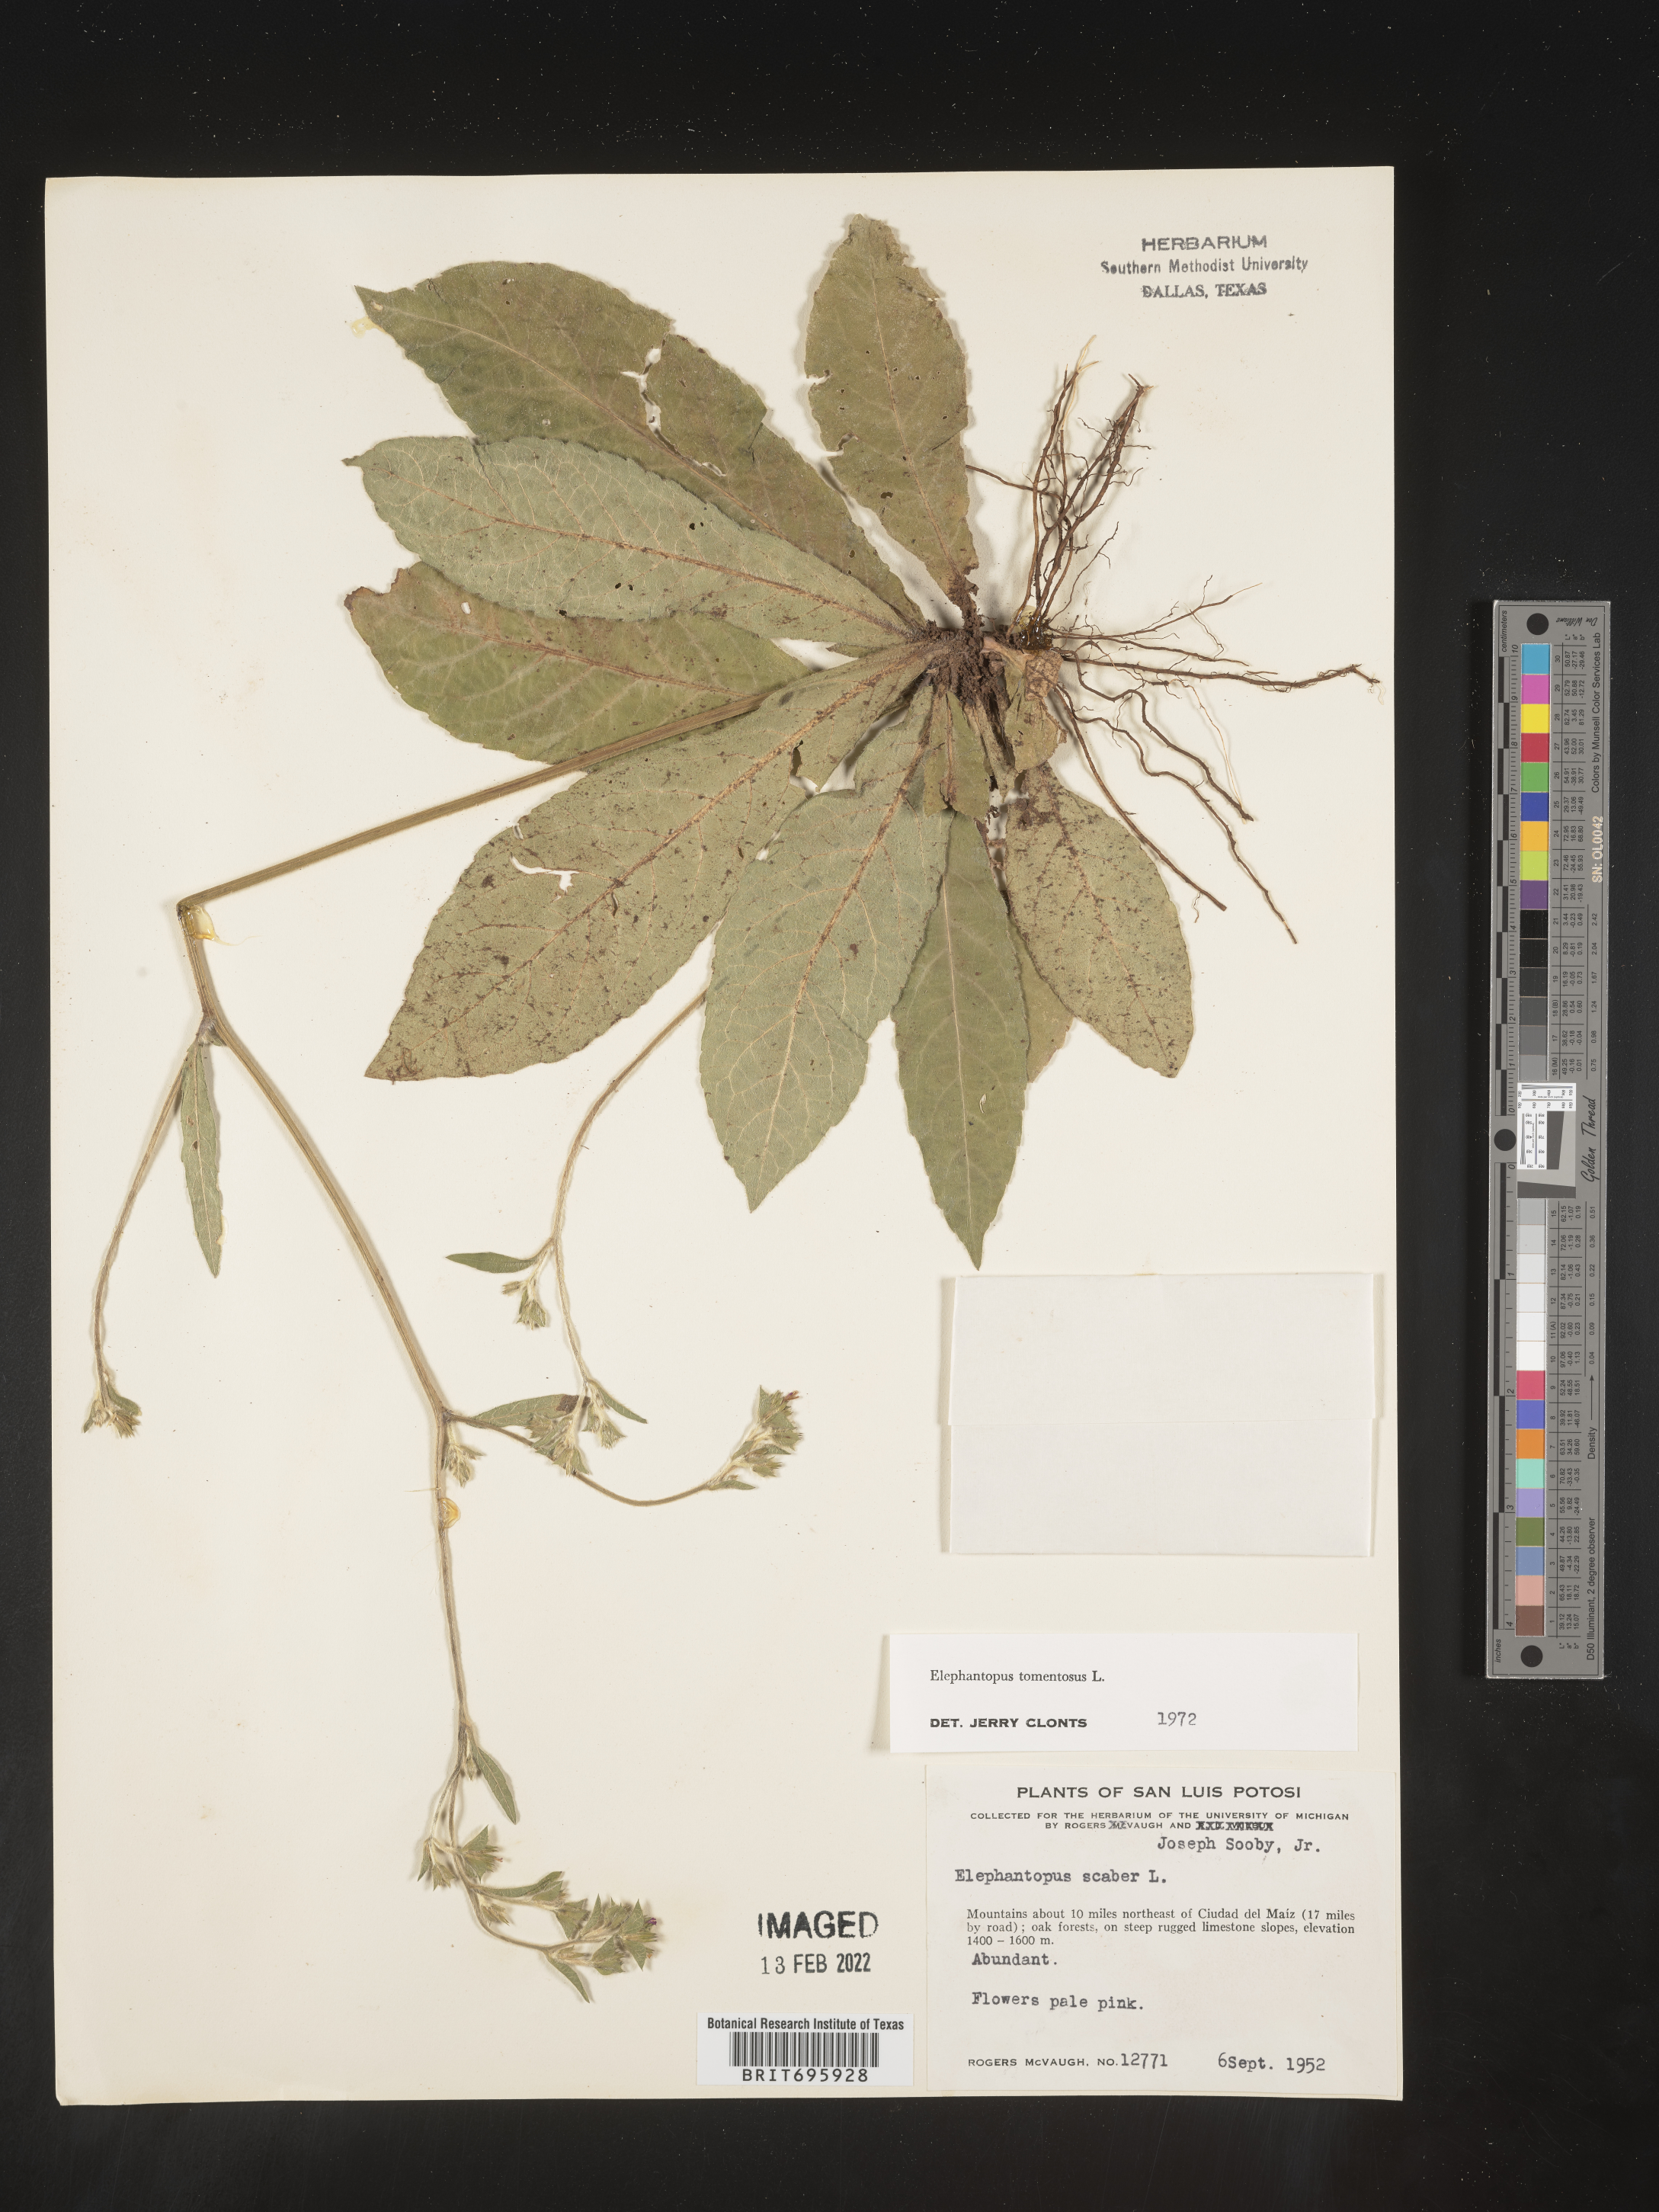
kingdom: Plantae
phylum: Tracheophyta
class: Magnoliopsida
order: Asterales
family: Asteraceae
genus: Elephantopus
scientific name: Elephantopus
